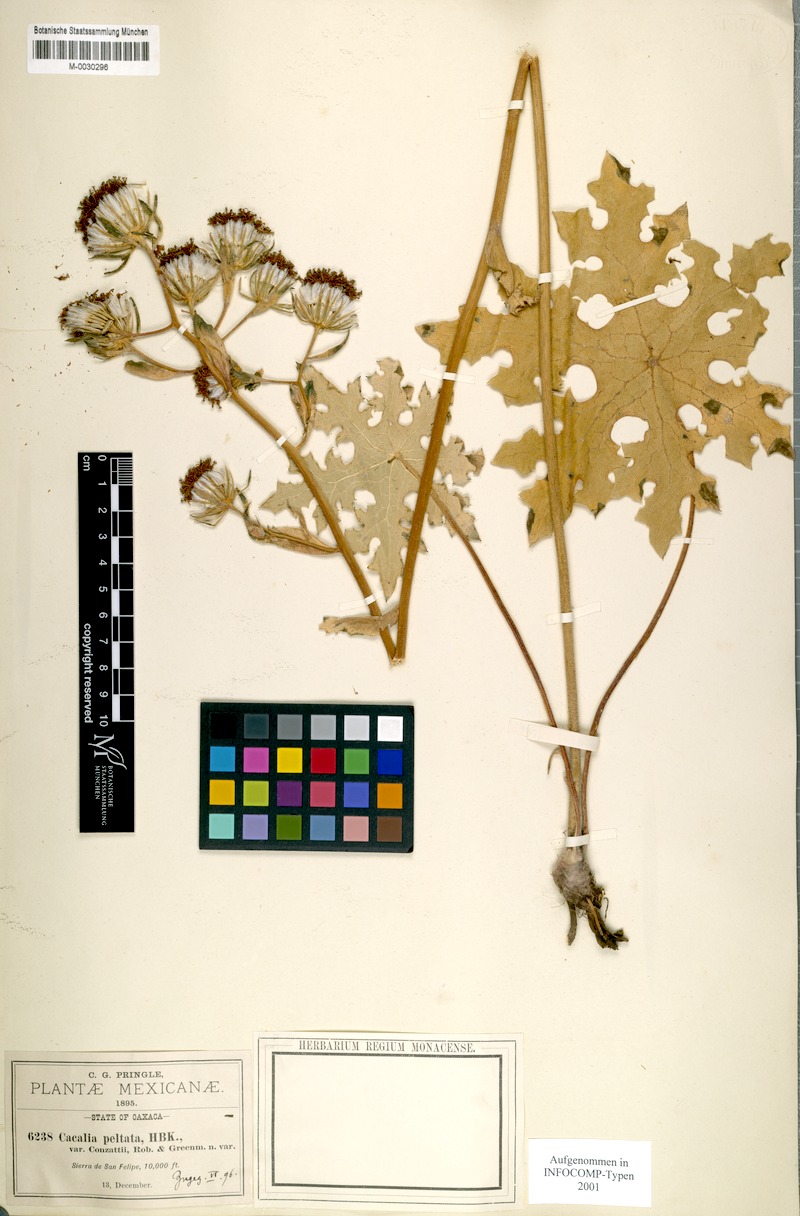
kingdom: Plantae
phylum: Tracheophyta
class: Magnoliopsida
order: Asterales
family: Asteraceae
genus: Psacalium
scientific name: Psacalium peltatum
